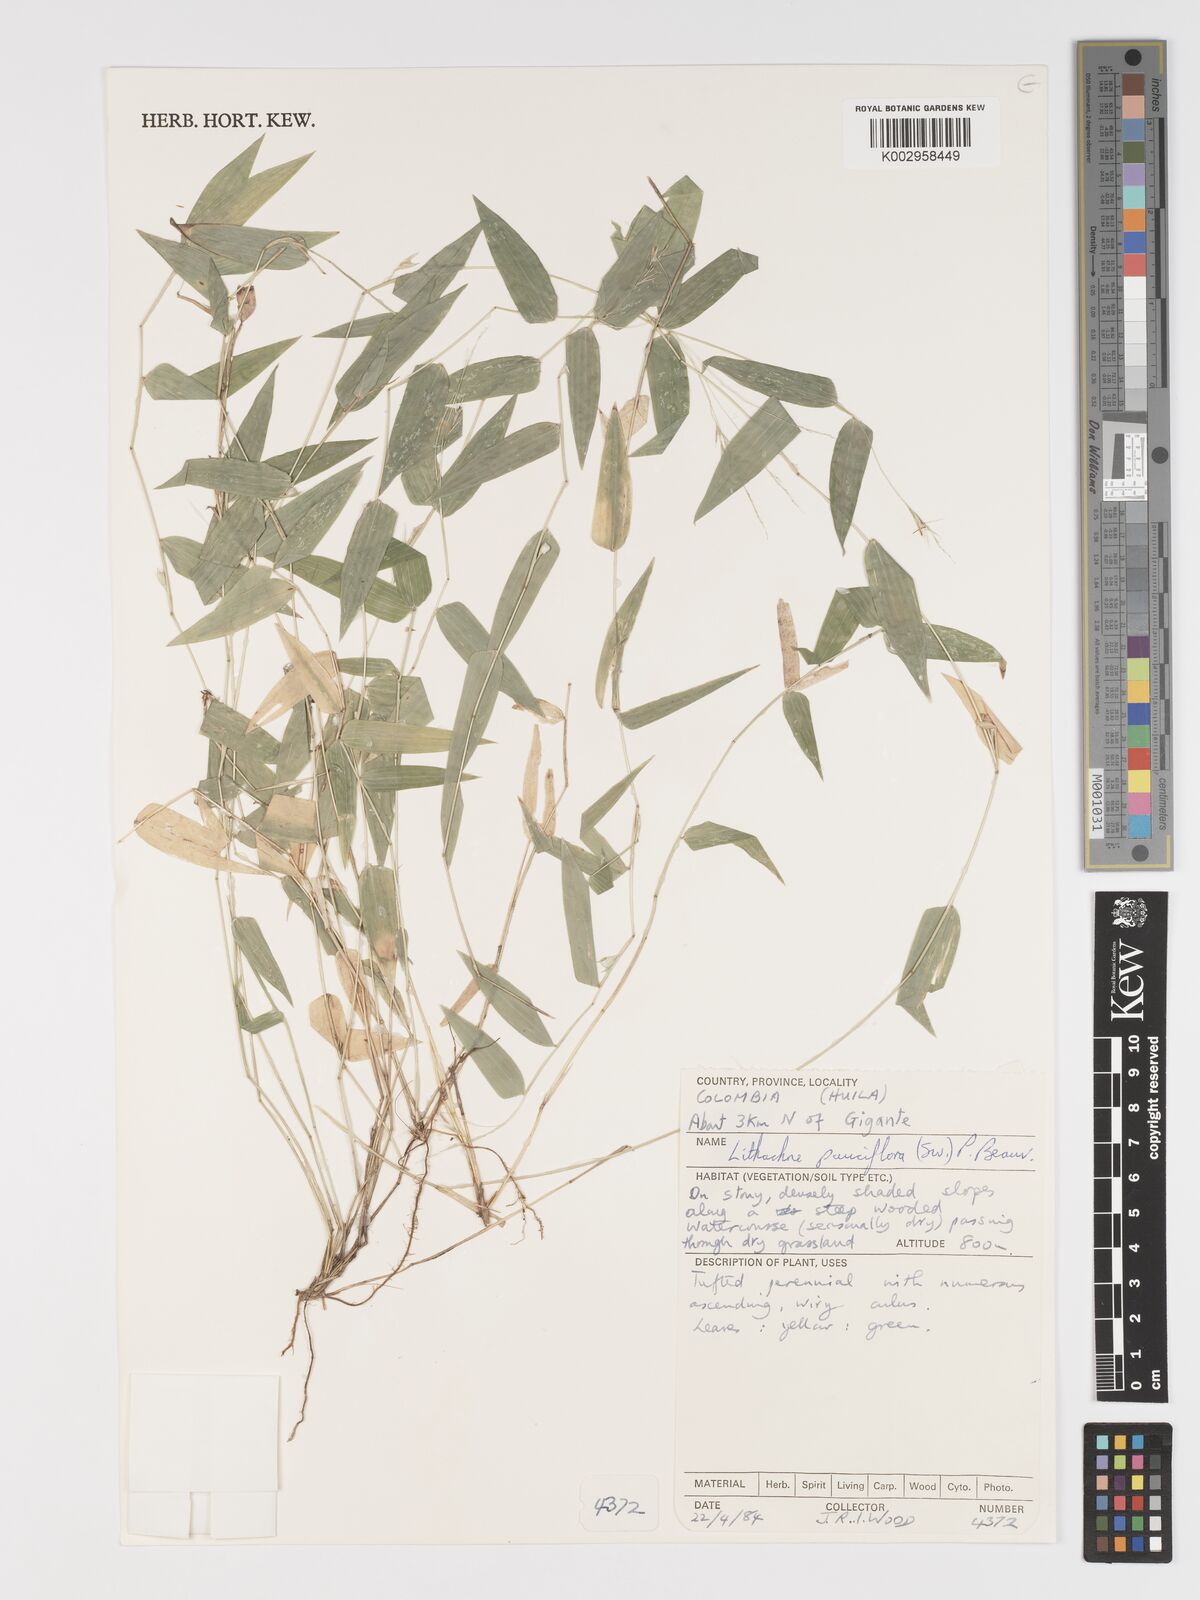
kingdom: Plantae
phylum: Tracheophyta
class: Liliopsida
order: Poales
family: Poaceae
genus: Lithachne
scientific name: Lithachne pauciflora
